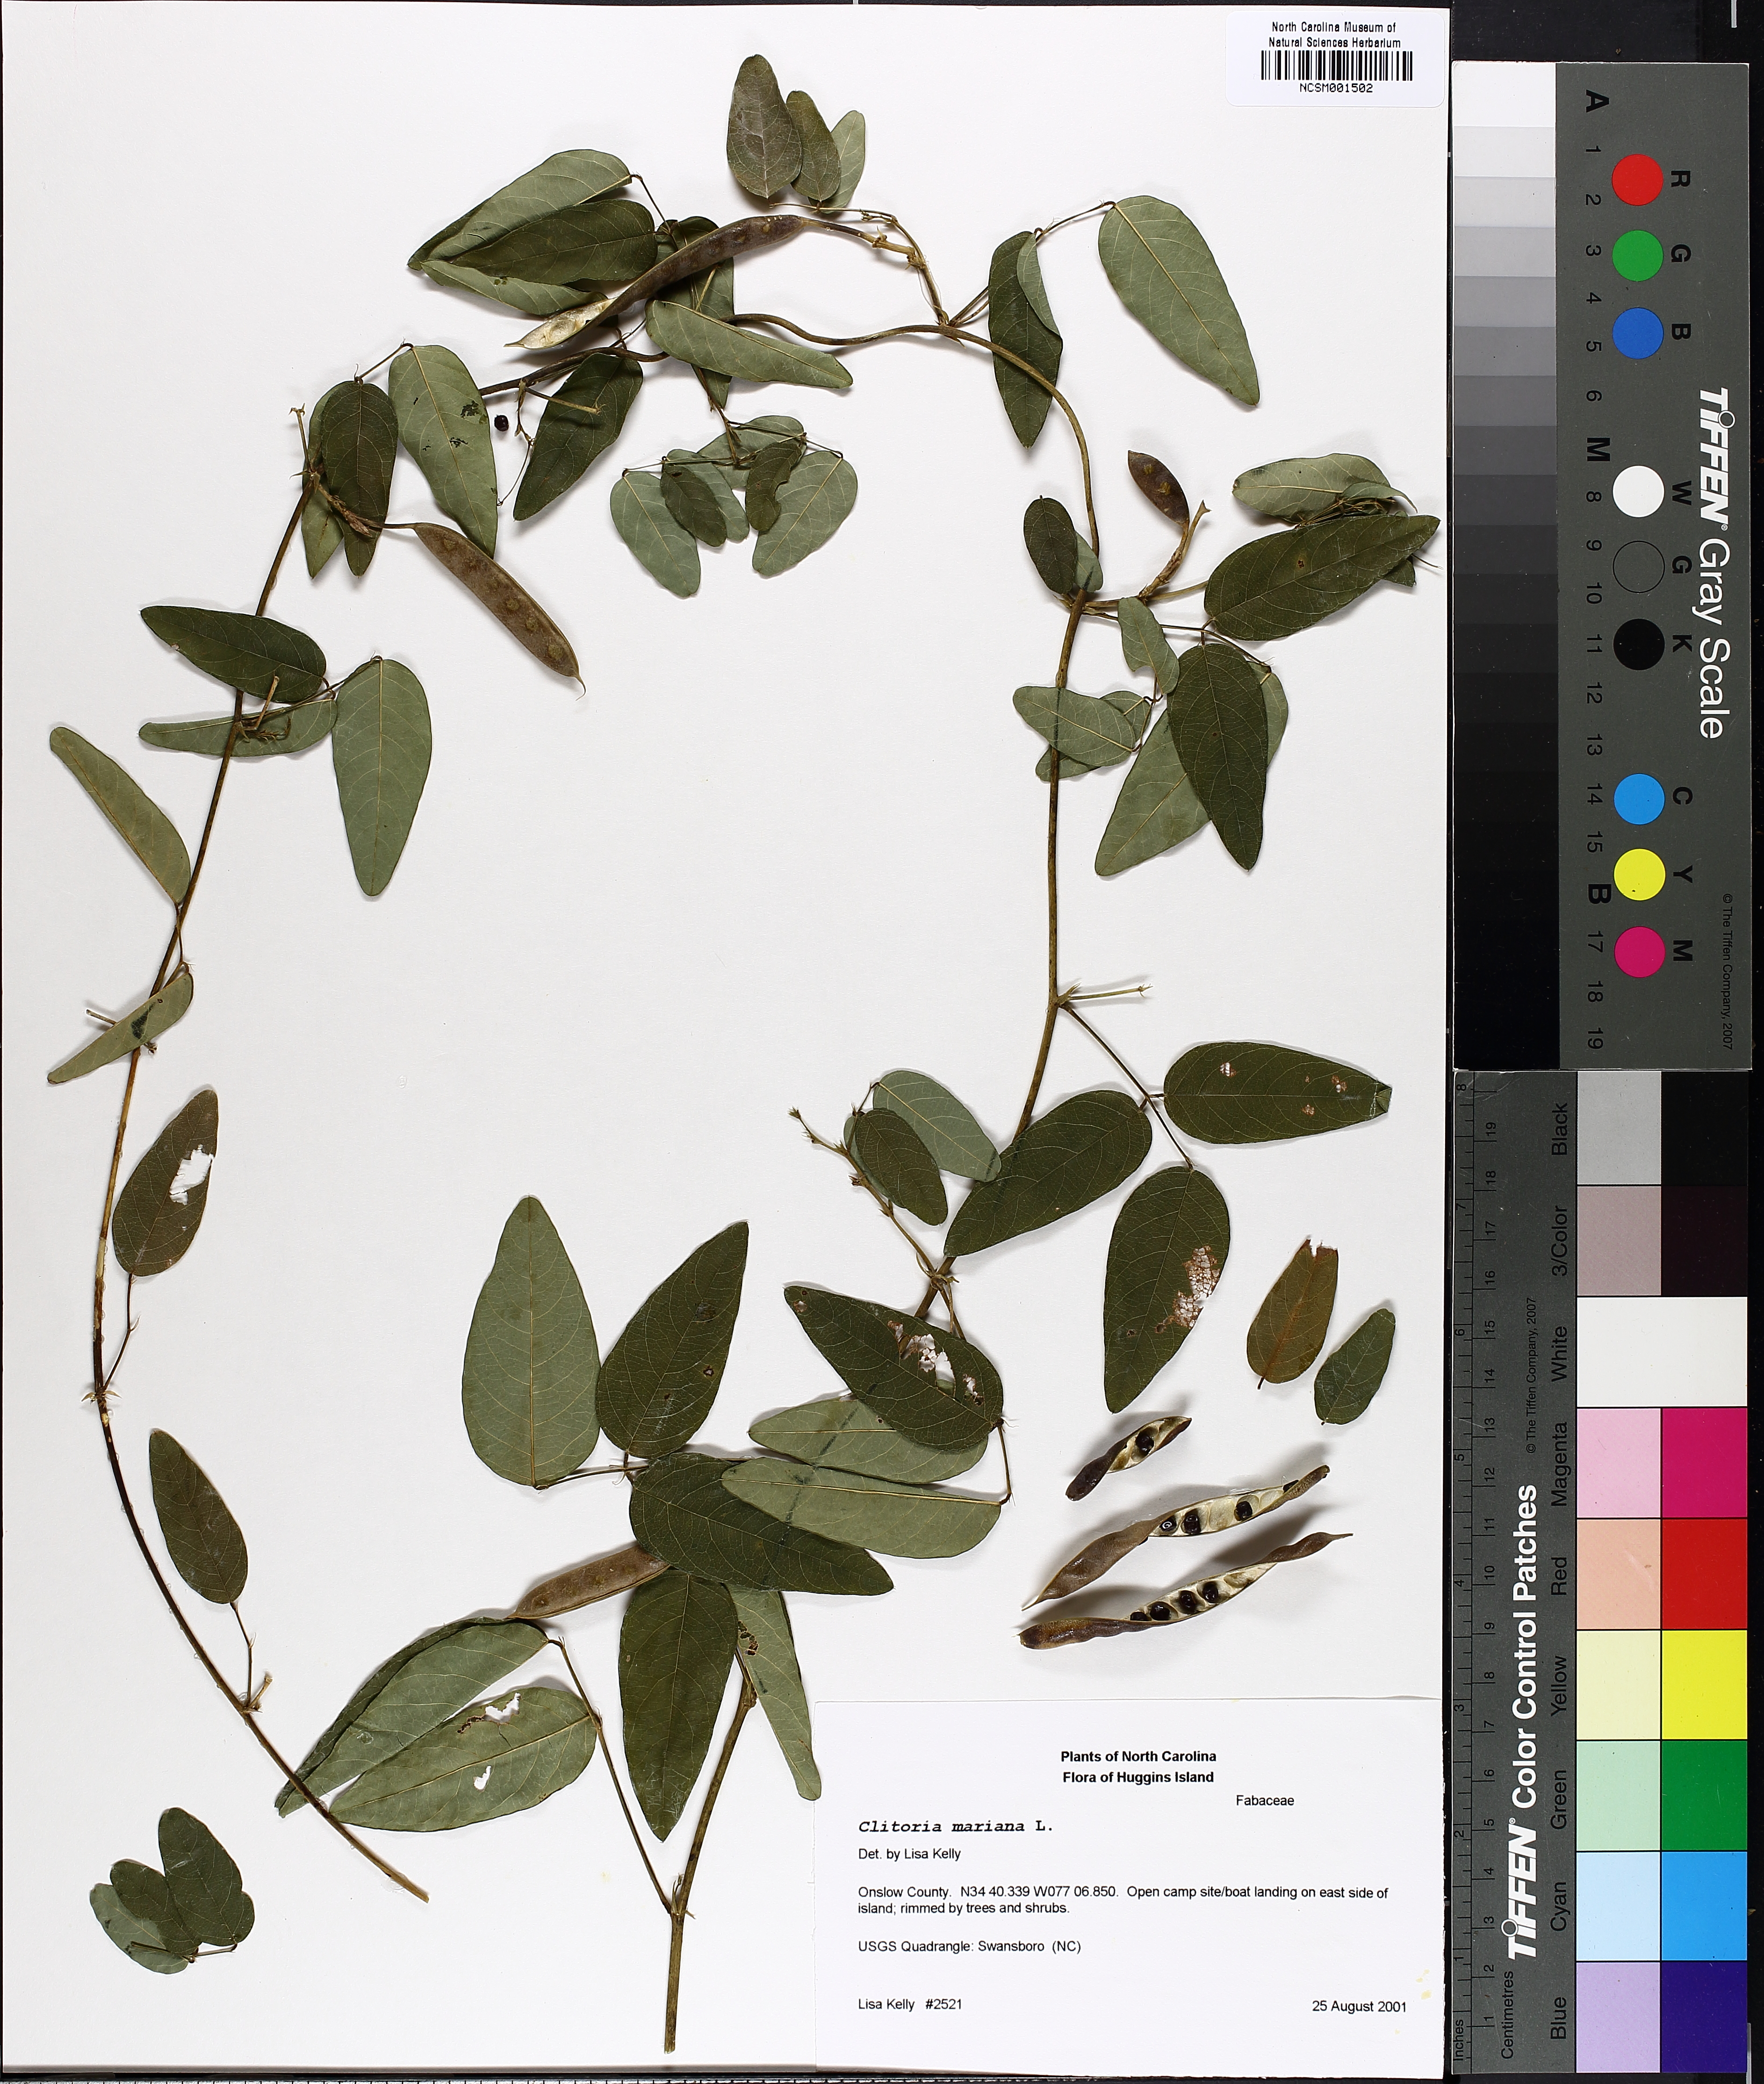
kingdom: Plantae
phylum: Tracheophyta
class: Magnoliopsida
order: Fabales
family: Fabaceae
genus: Clitoria
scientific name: Clitoria mariana
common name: Butterfly-pea
